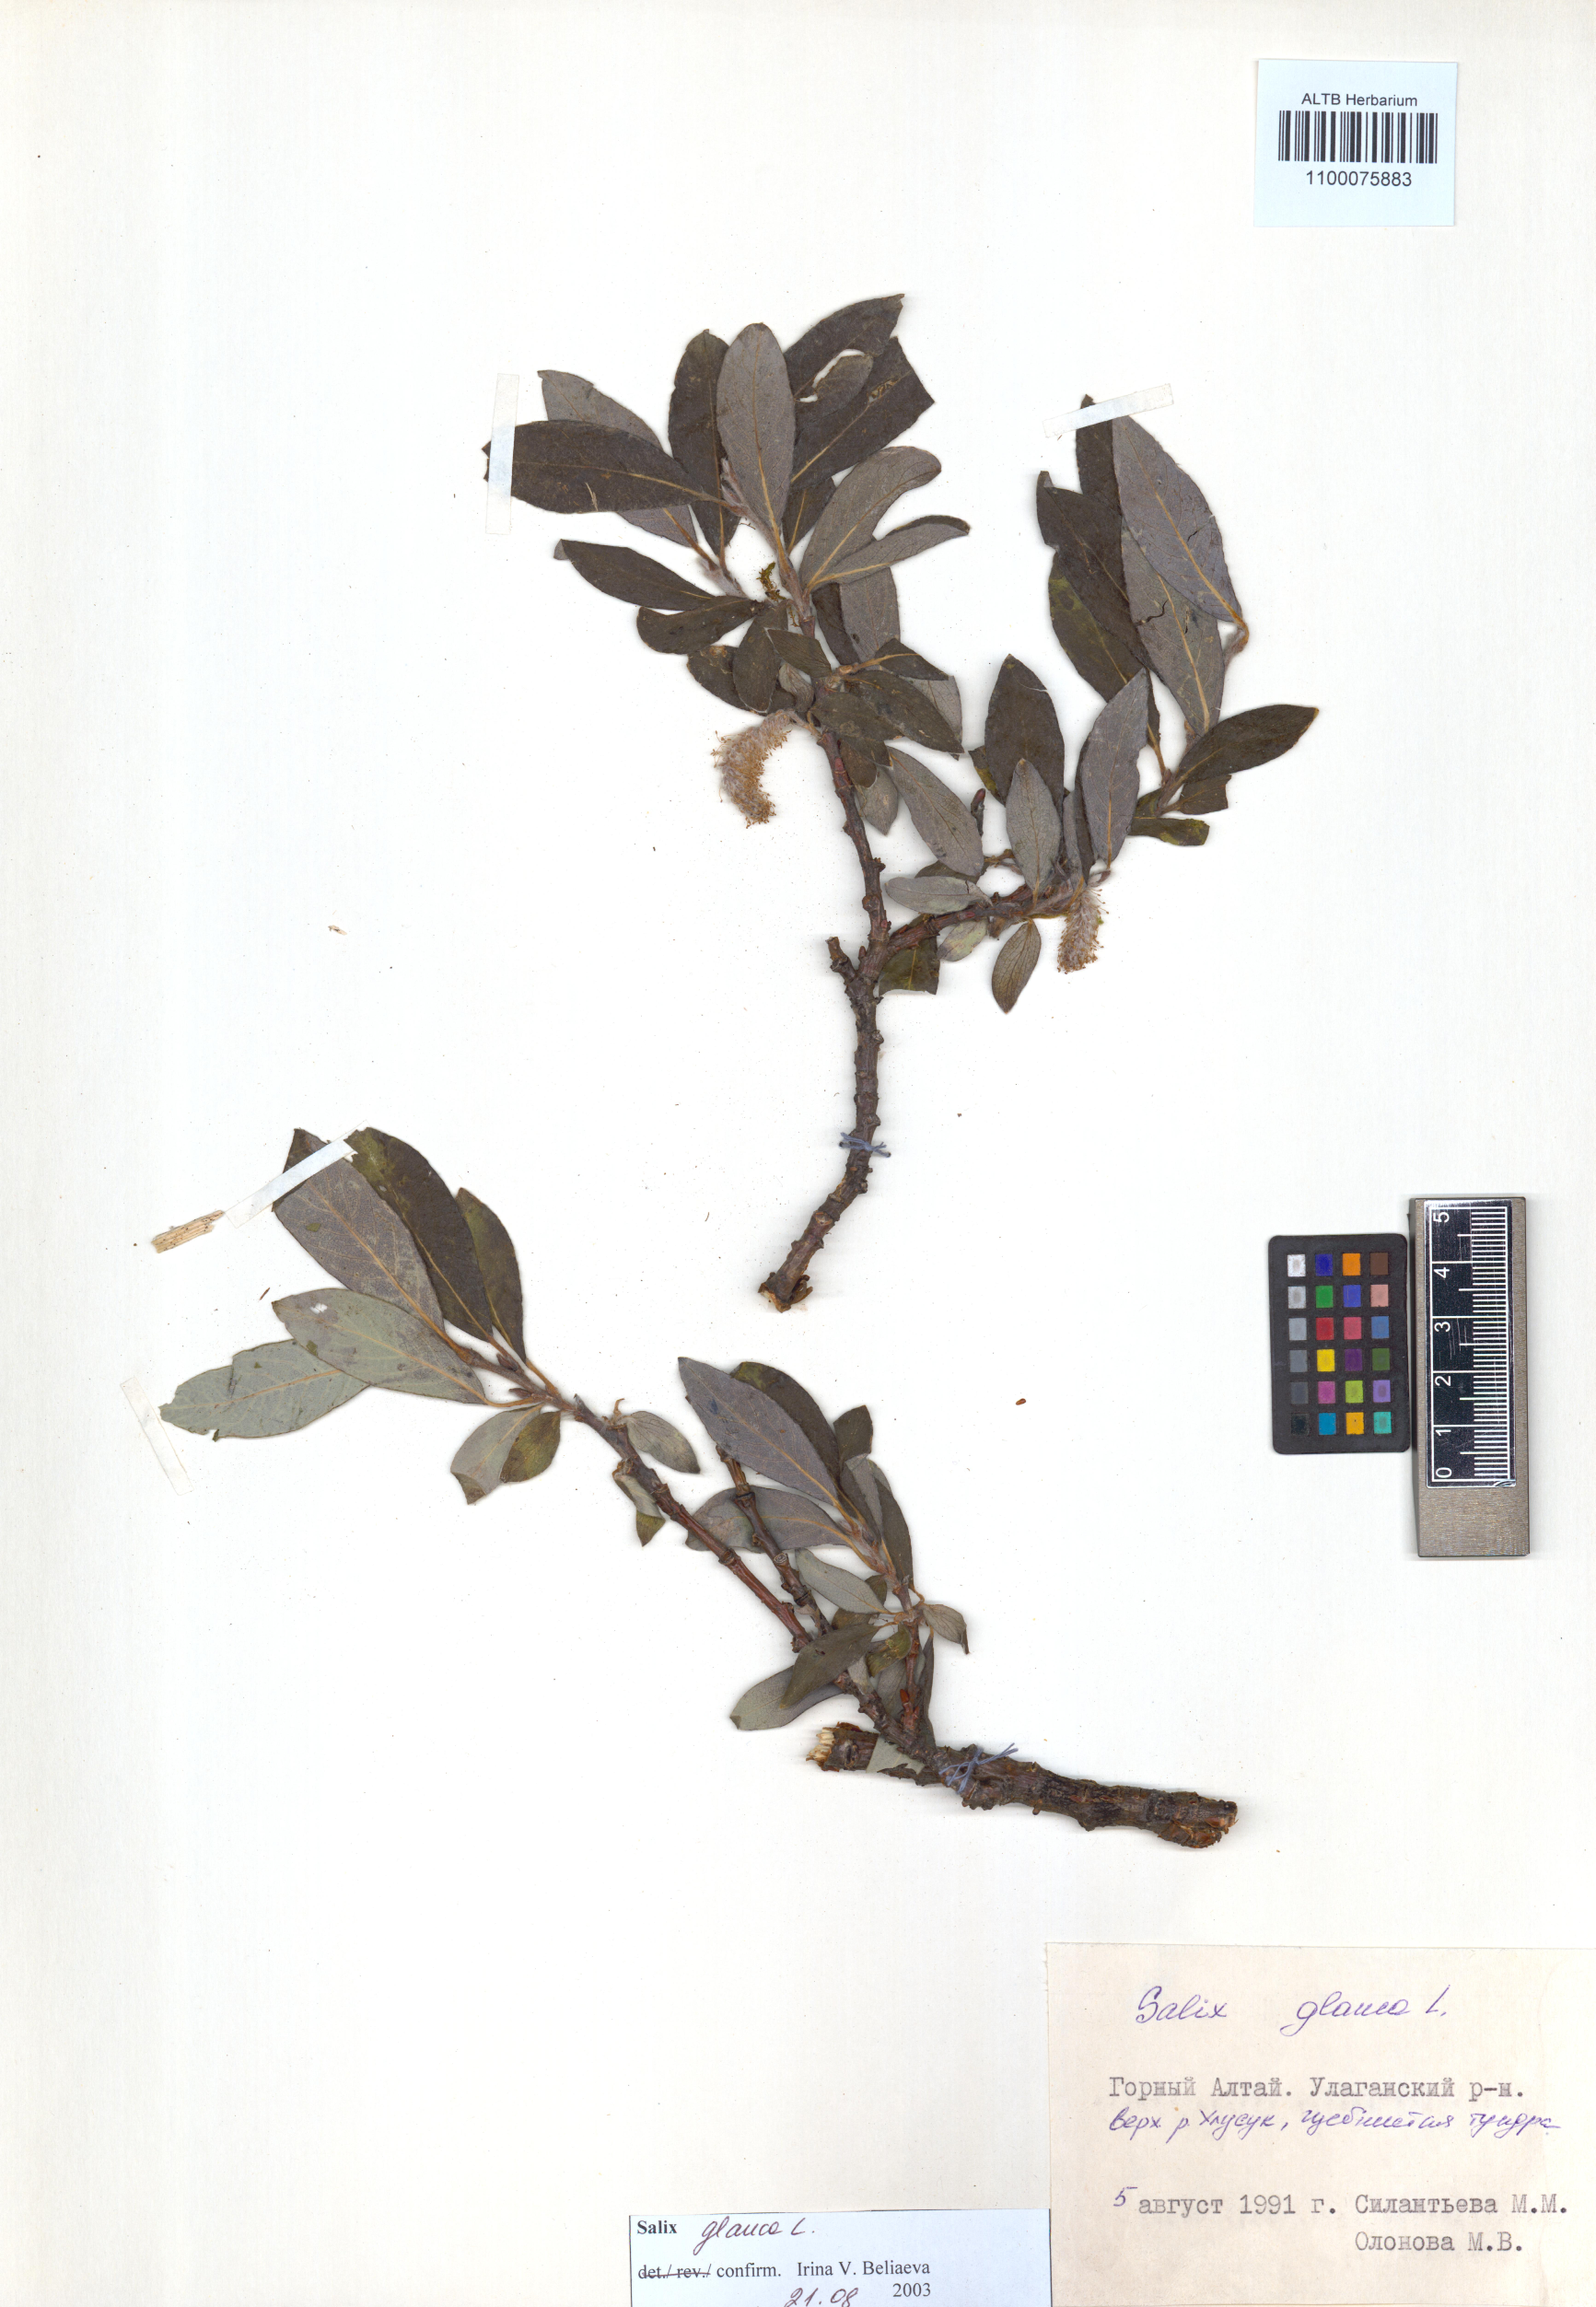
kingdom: Plantae
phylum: Tracheophyta
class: Magnoliopsida
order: Malpighiales
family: Salicaceae
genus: Salix
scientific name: Salix glauca
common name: Glaucous willow
